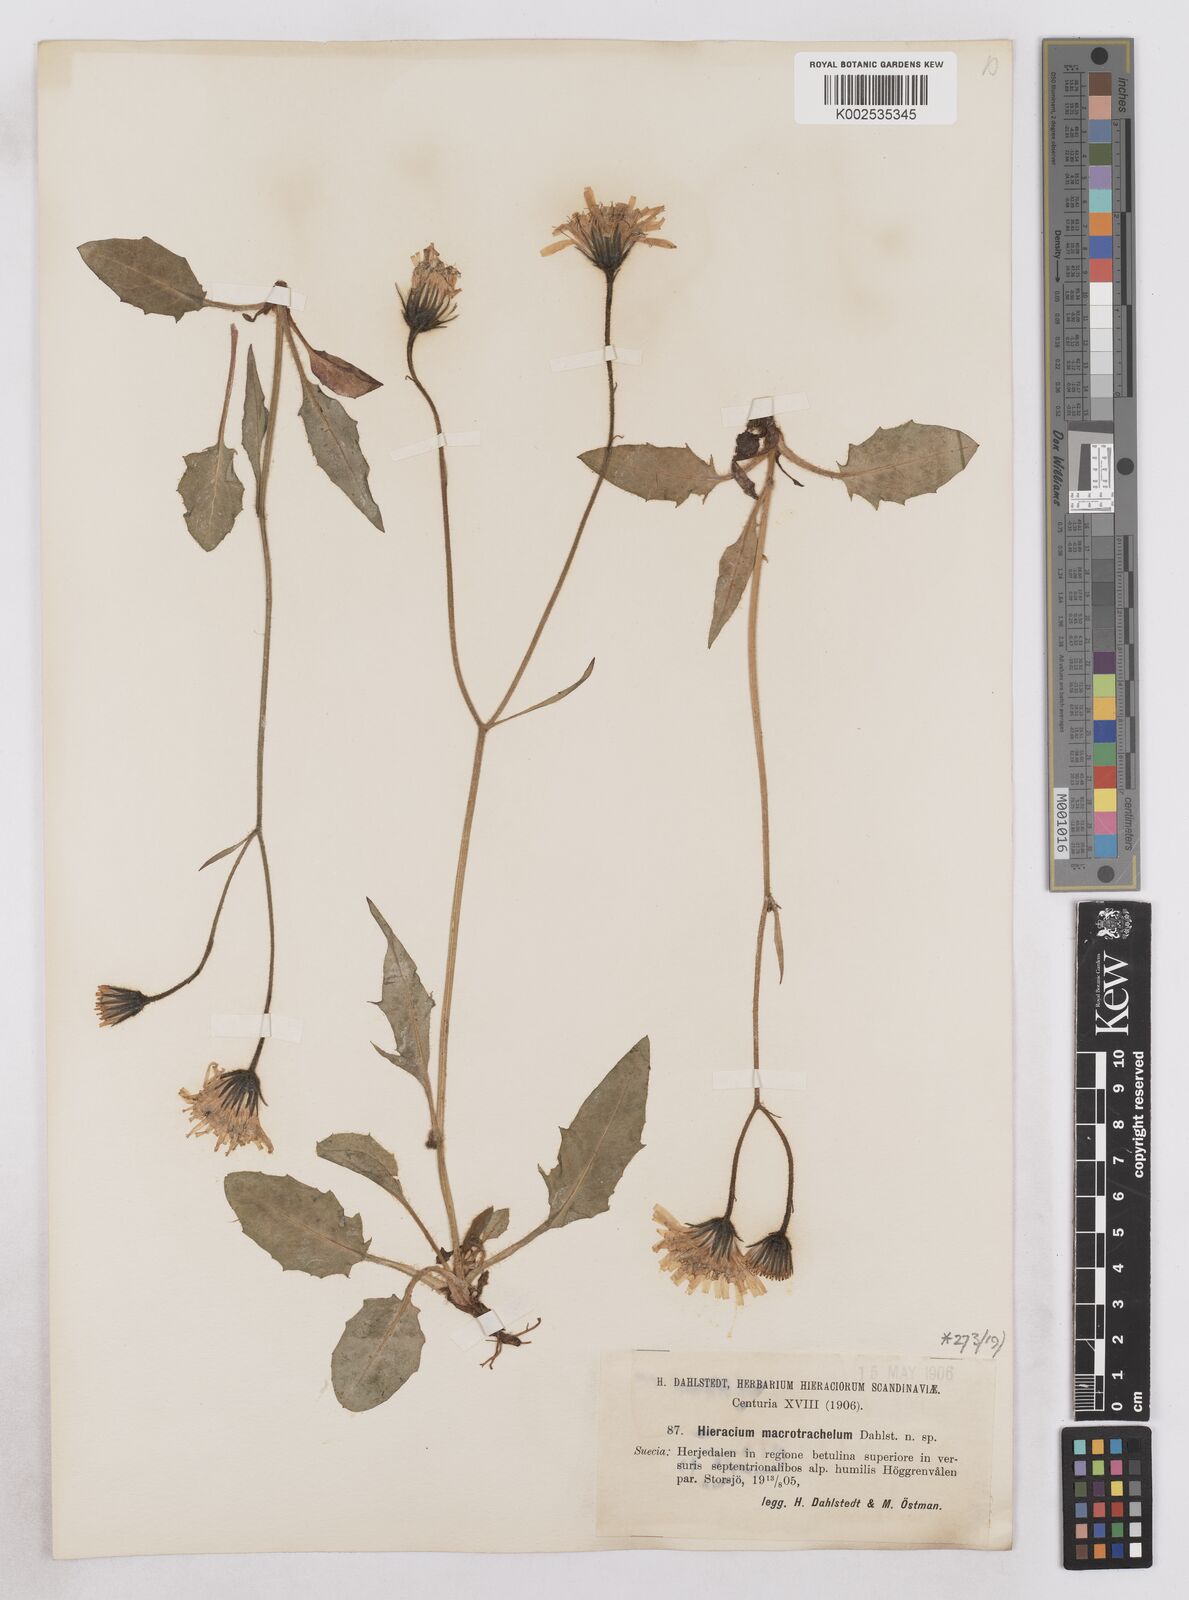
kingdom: Plantae
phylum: Tracheophyta
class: Magnoliopsida
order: Asterales
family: Asteraceae
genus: Hieracium
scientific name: Hieracium conspurcans
